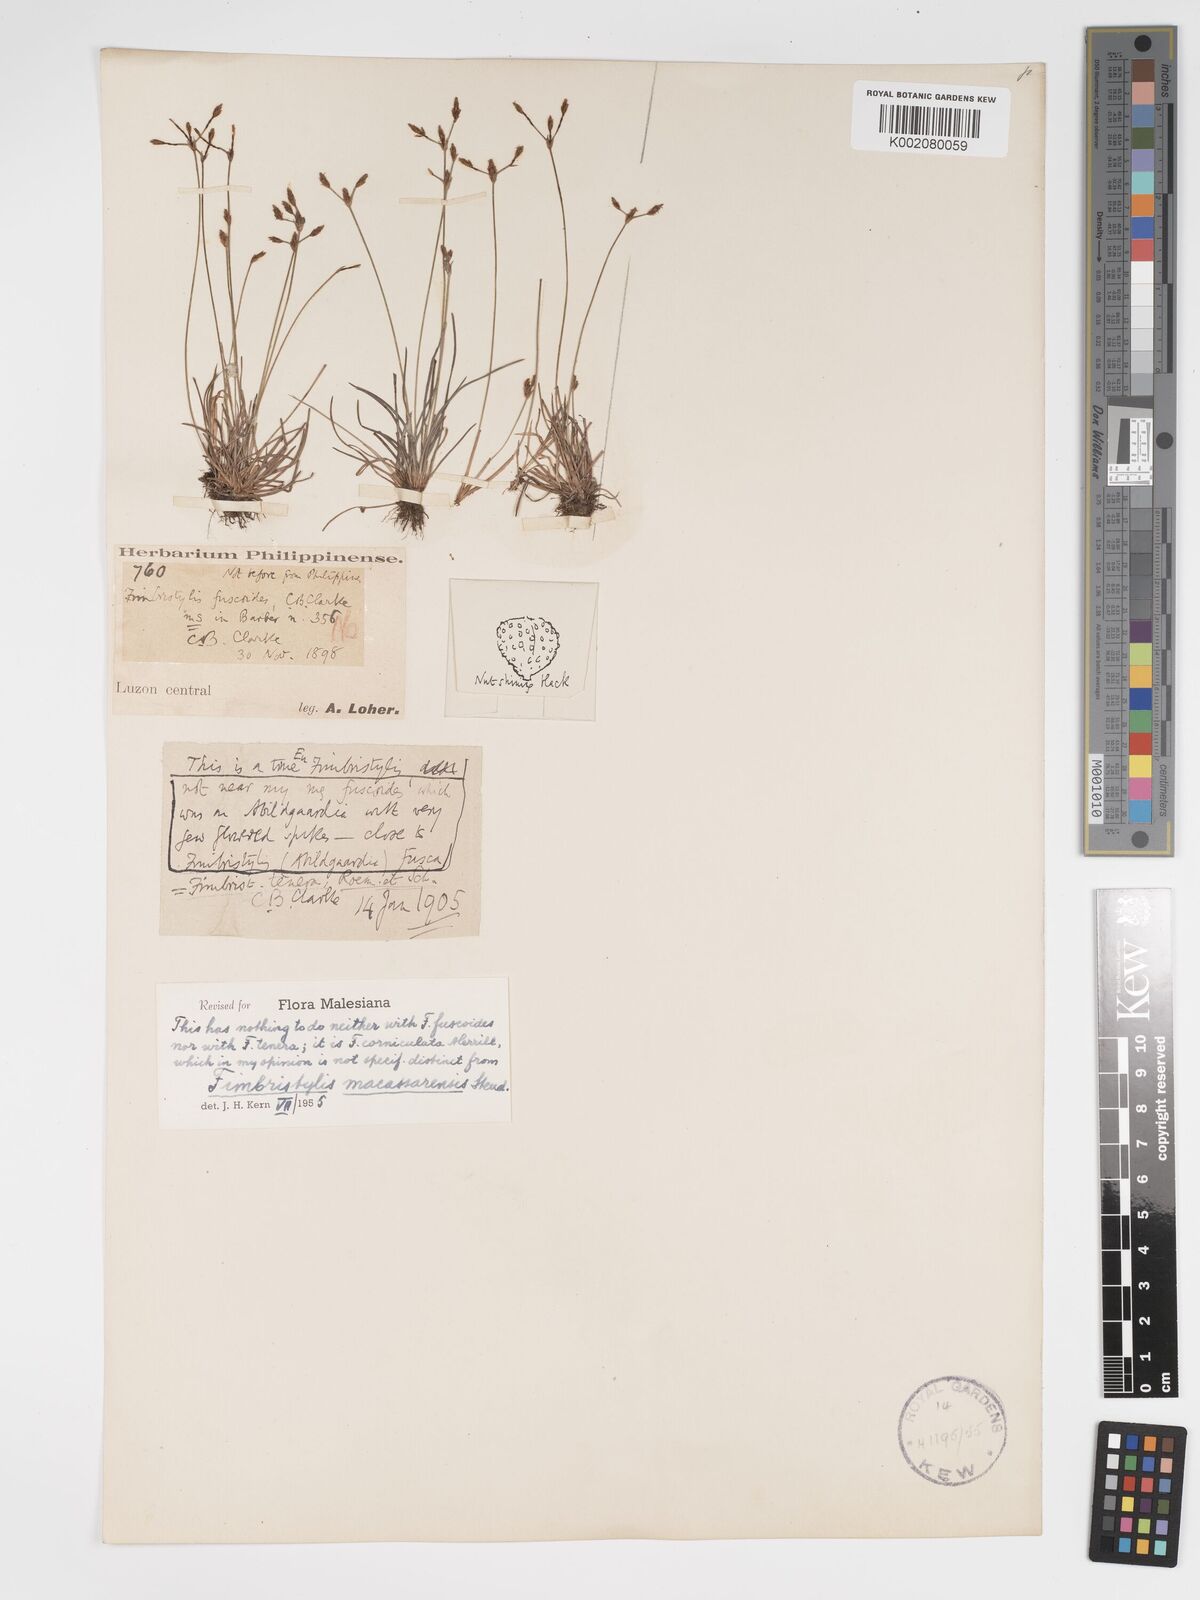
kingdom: Plantae
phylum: Tracheophyta
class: Liliopsida
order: Poales
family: Cyperaceae
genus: Fimbristylis
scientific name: Fimbristylis macassarensis
